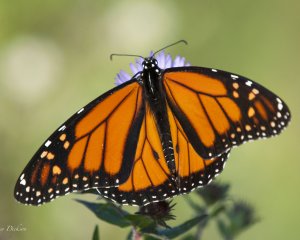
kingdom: Animalia
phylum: Arthropoda
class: Insecta
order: Lepidoptera
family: Nymphalidae
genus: Danaus
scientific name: Danaus plexippus
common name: Monarch
